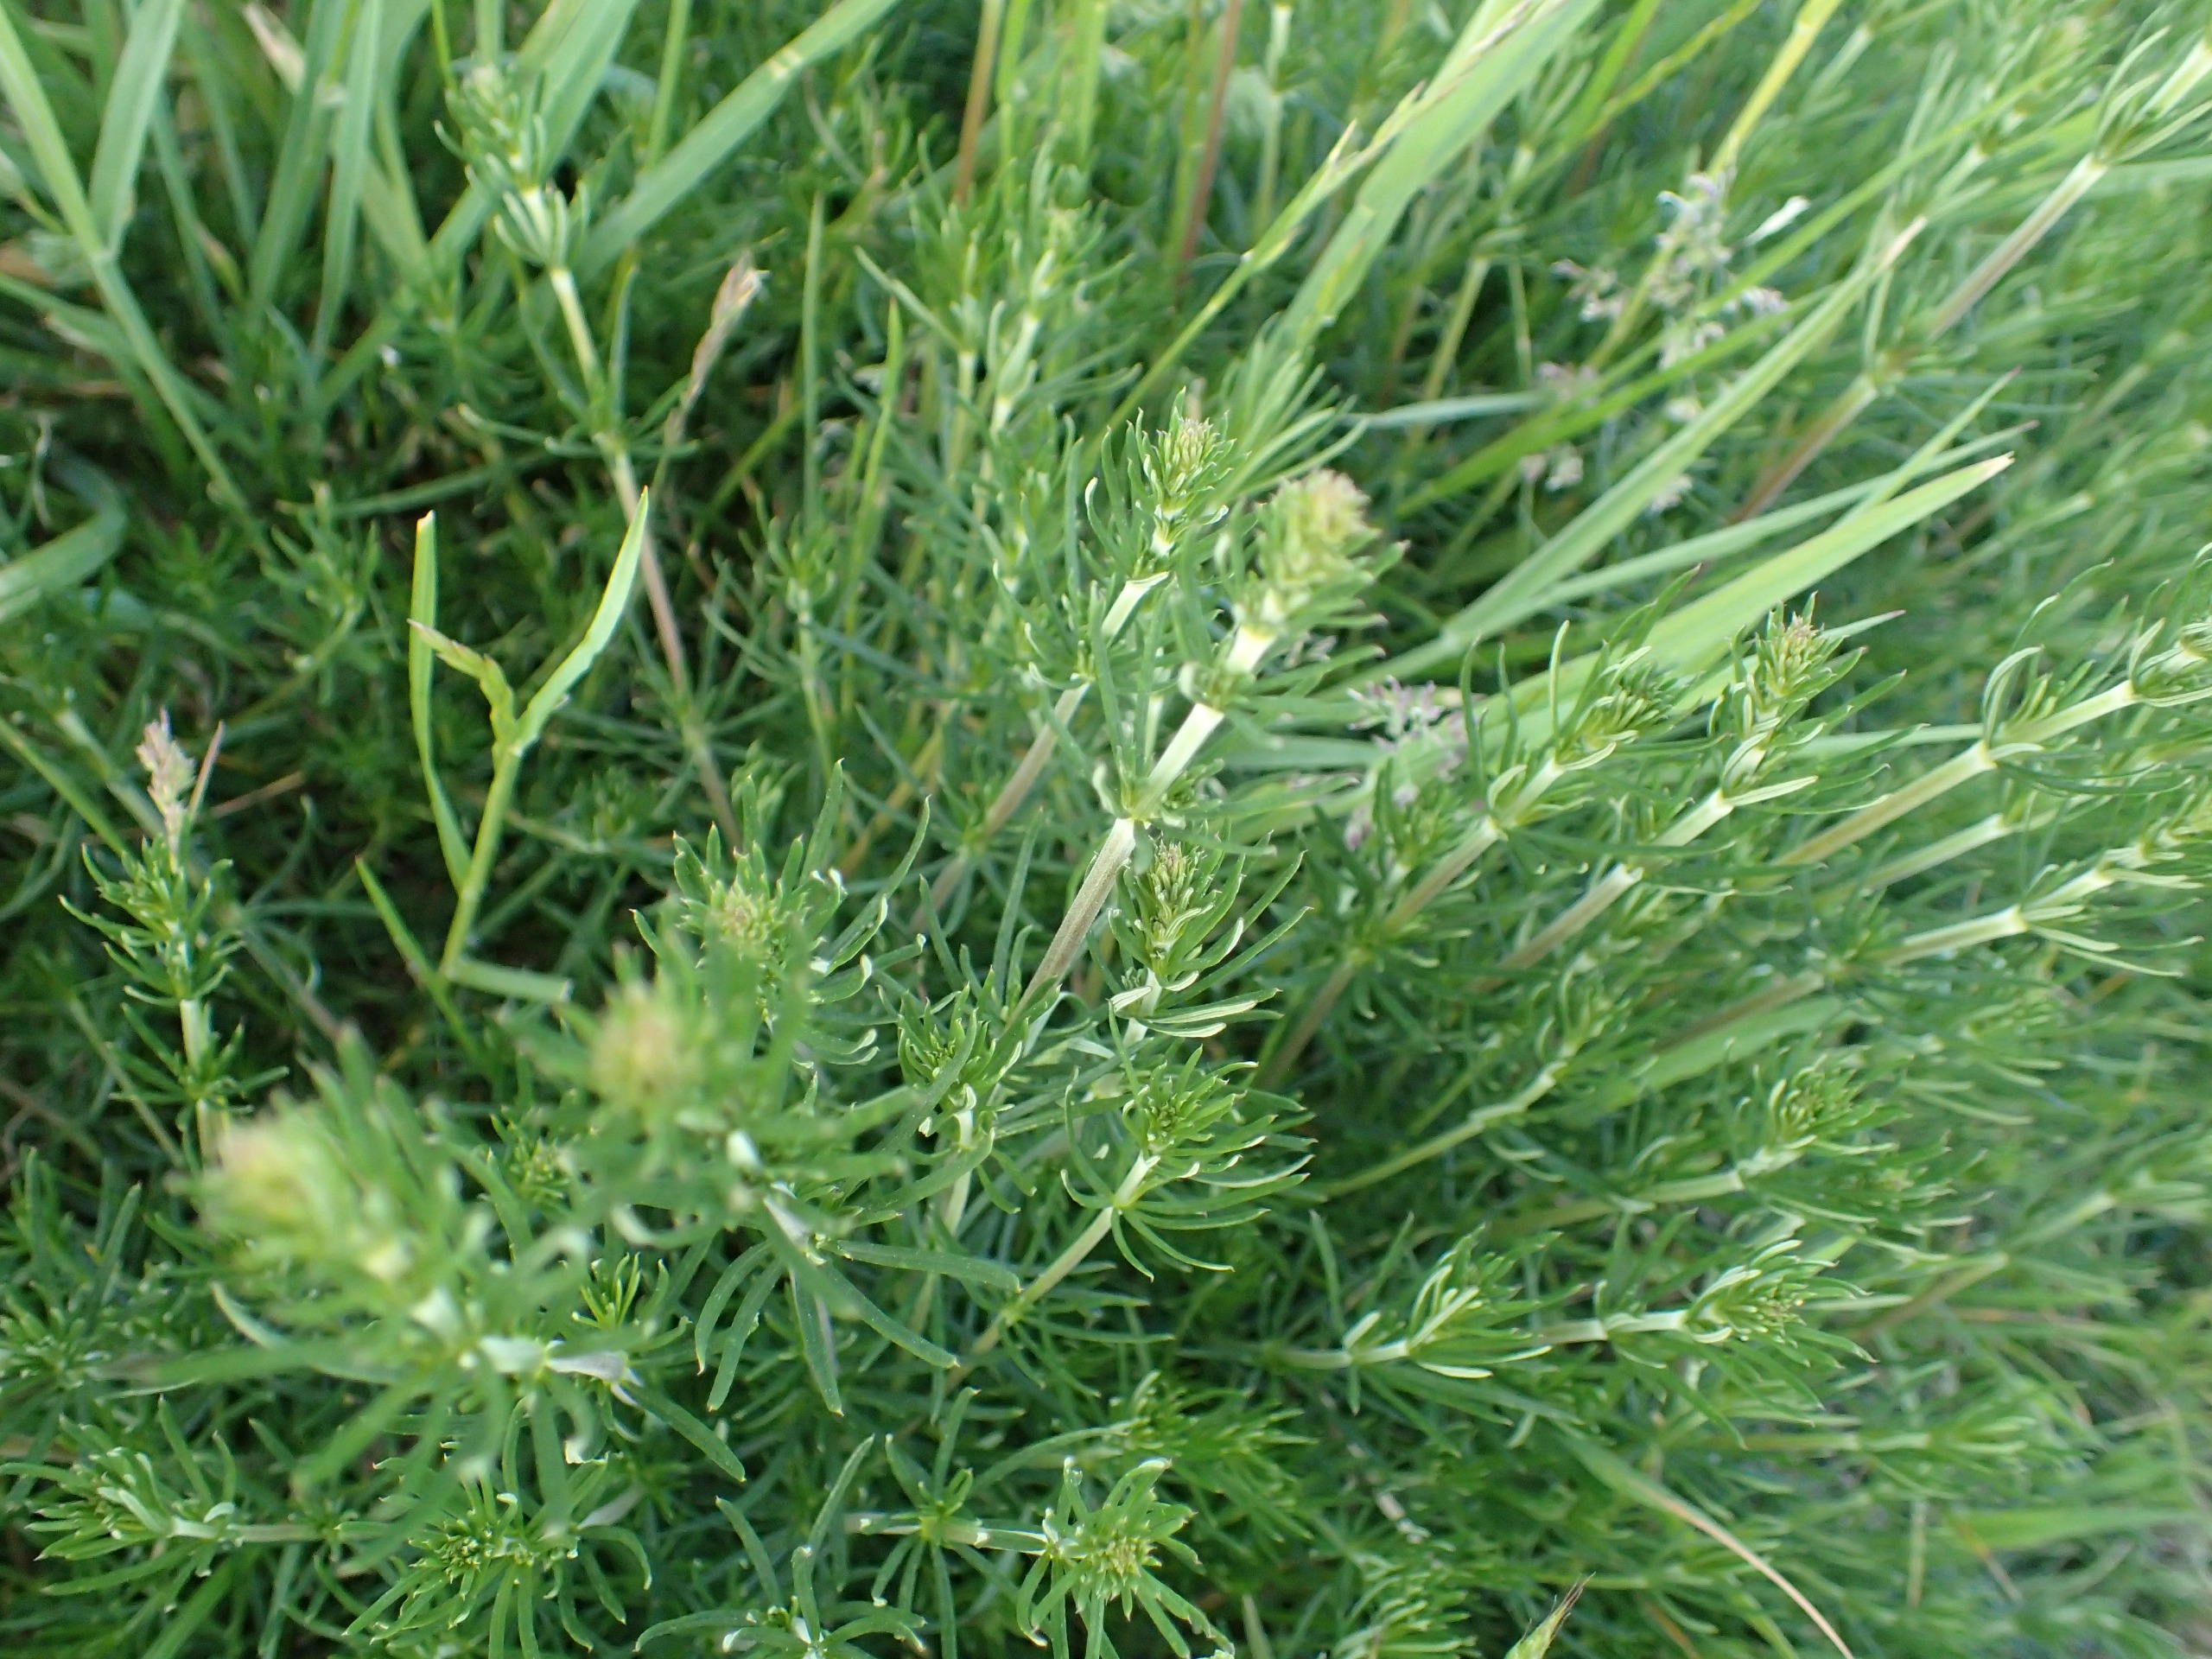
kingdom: Plantae
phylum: Tracheophyta
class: Magnoliopsida
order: Gentianales
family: Rubiaceae
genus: Galium
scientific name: Galium verum
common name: Gul snerre
